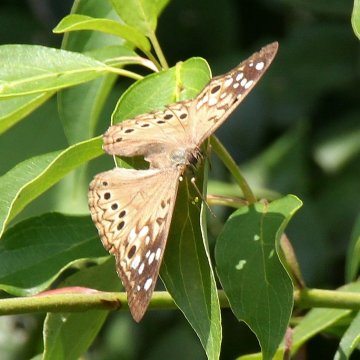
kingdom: Animalia
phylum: Arthropoda
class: Insecta
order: Lepidoptera
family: Nymphalidae
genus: Asterocampa
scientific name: Asterocampa celtis
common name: Hackberry Emperor
